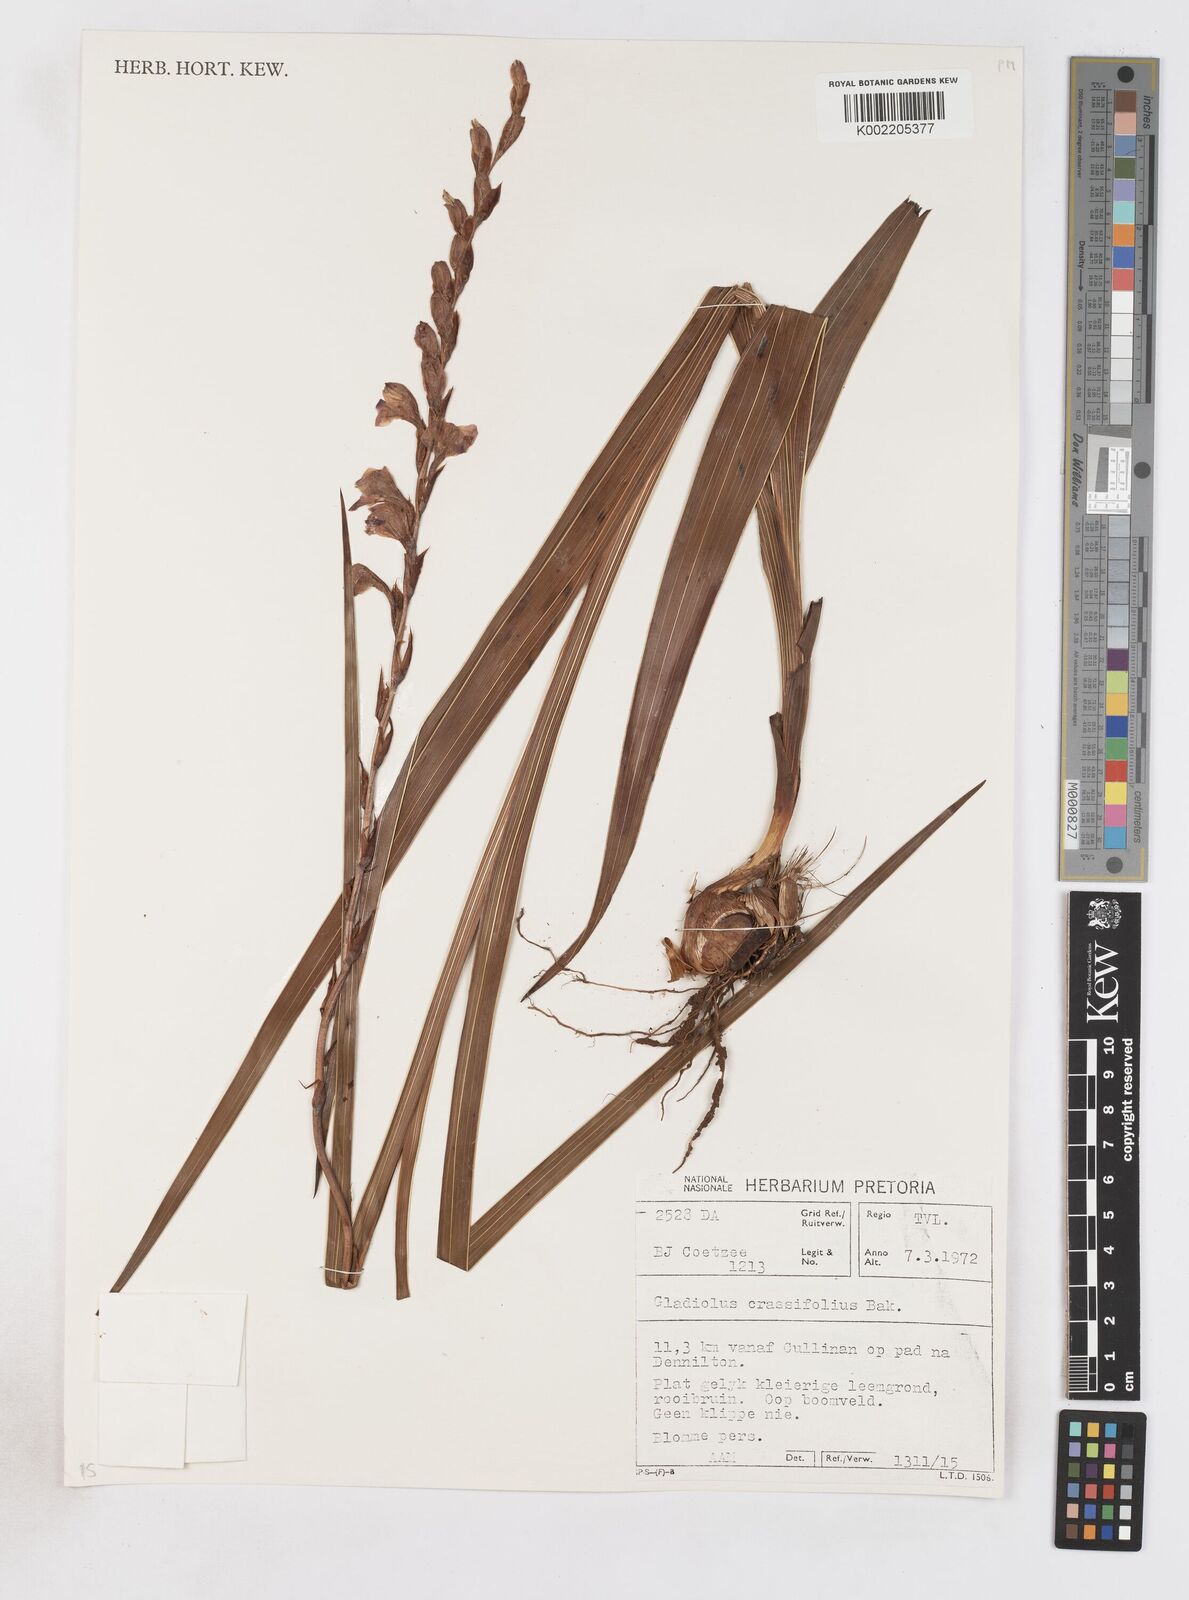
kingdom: Plantae
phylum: Tracheophyta
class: Liliopsida
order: Asparagales
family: Iridaceae
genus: Gladiolus
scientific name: Gladiolus crassifolius
